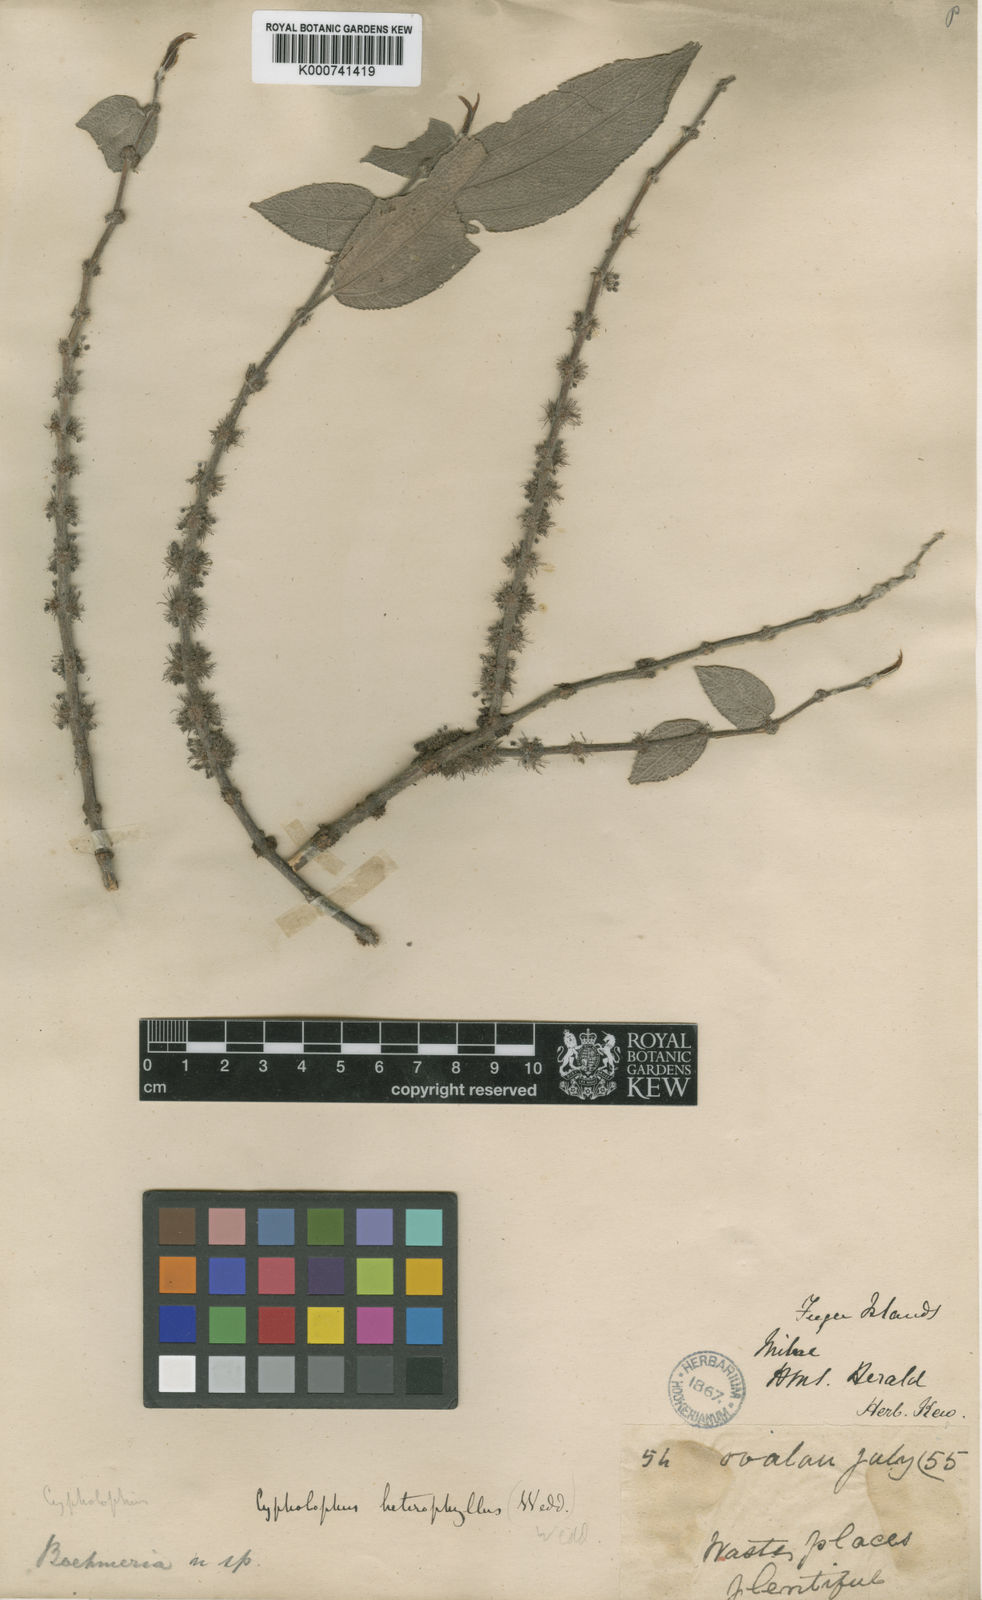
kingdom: Plantae
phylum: Tracheophyta
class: Magnoliopsida
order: Rosales
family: Urticaceae
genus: Cypholophus
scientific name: Cypholophus macrocephalus
